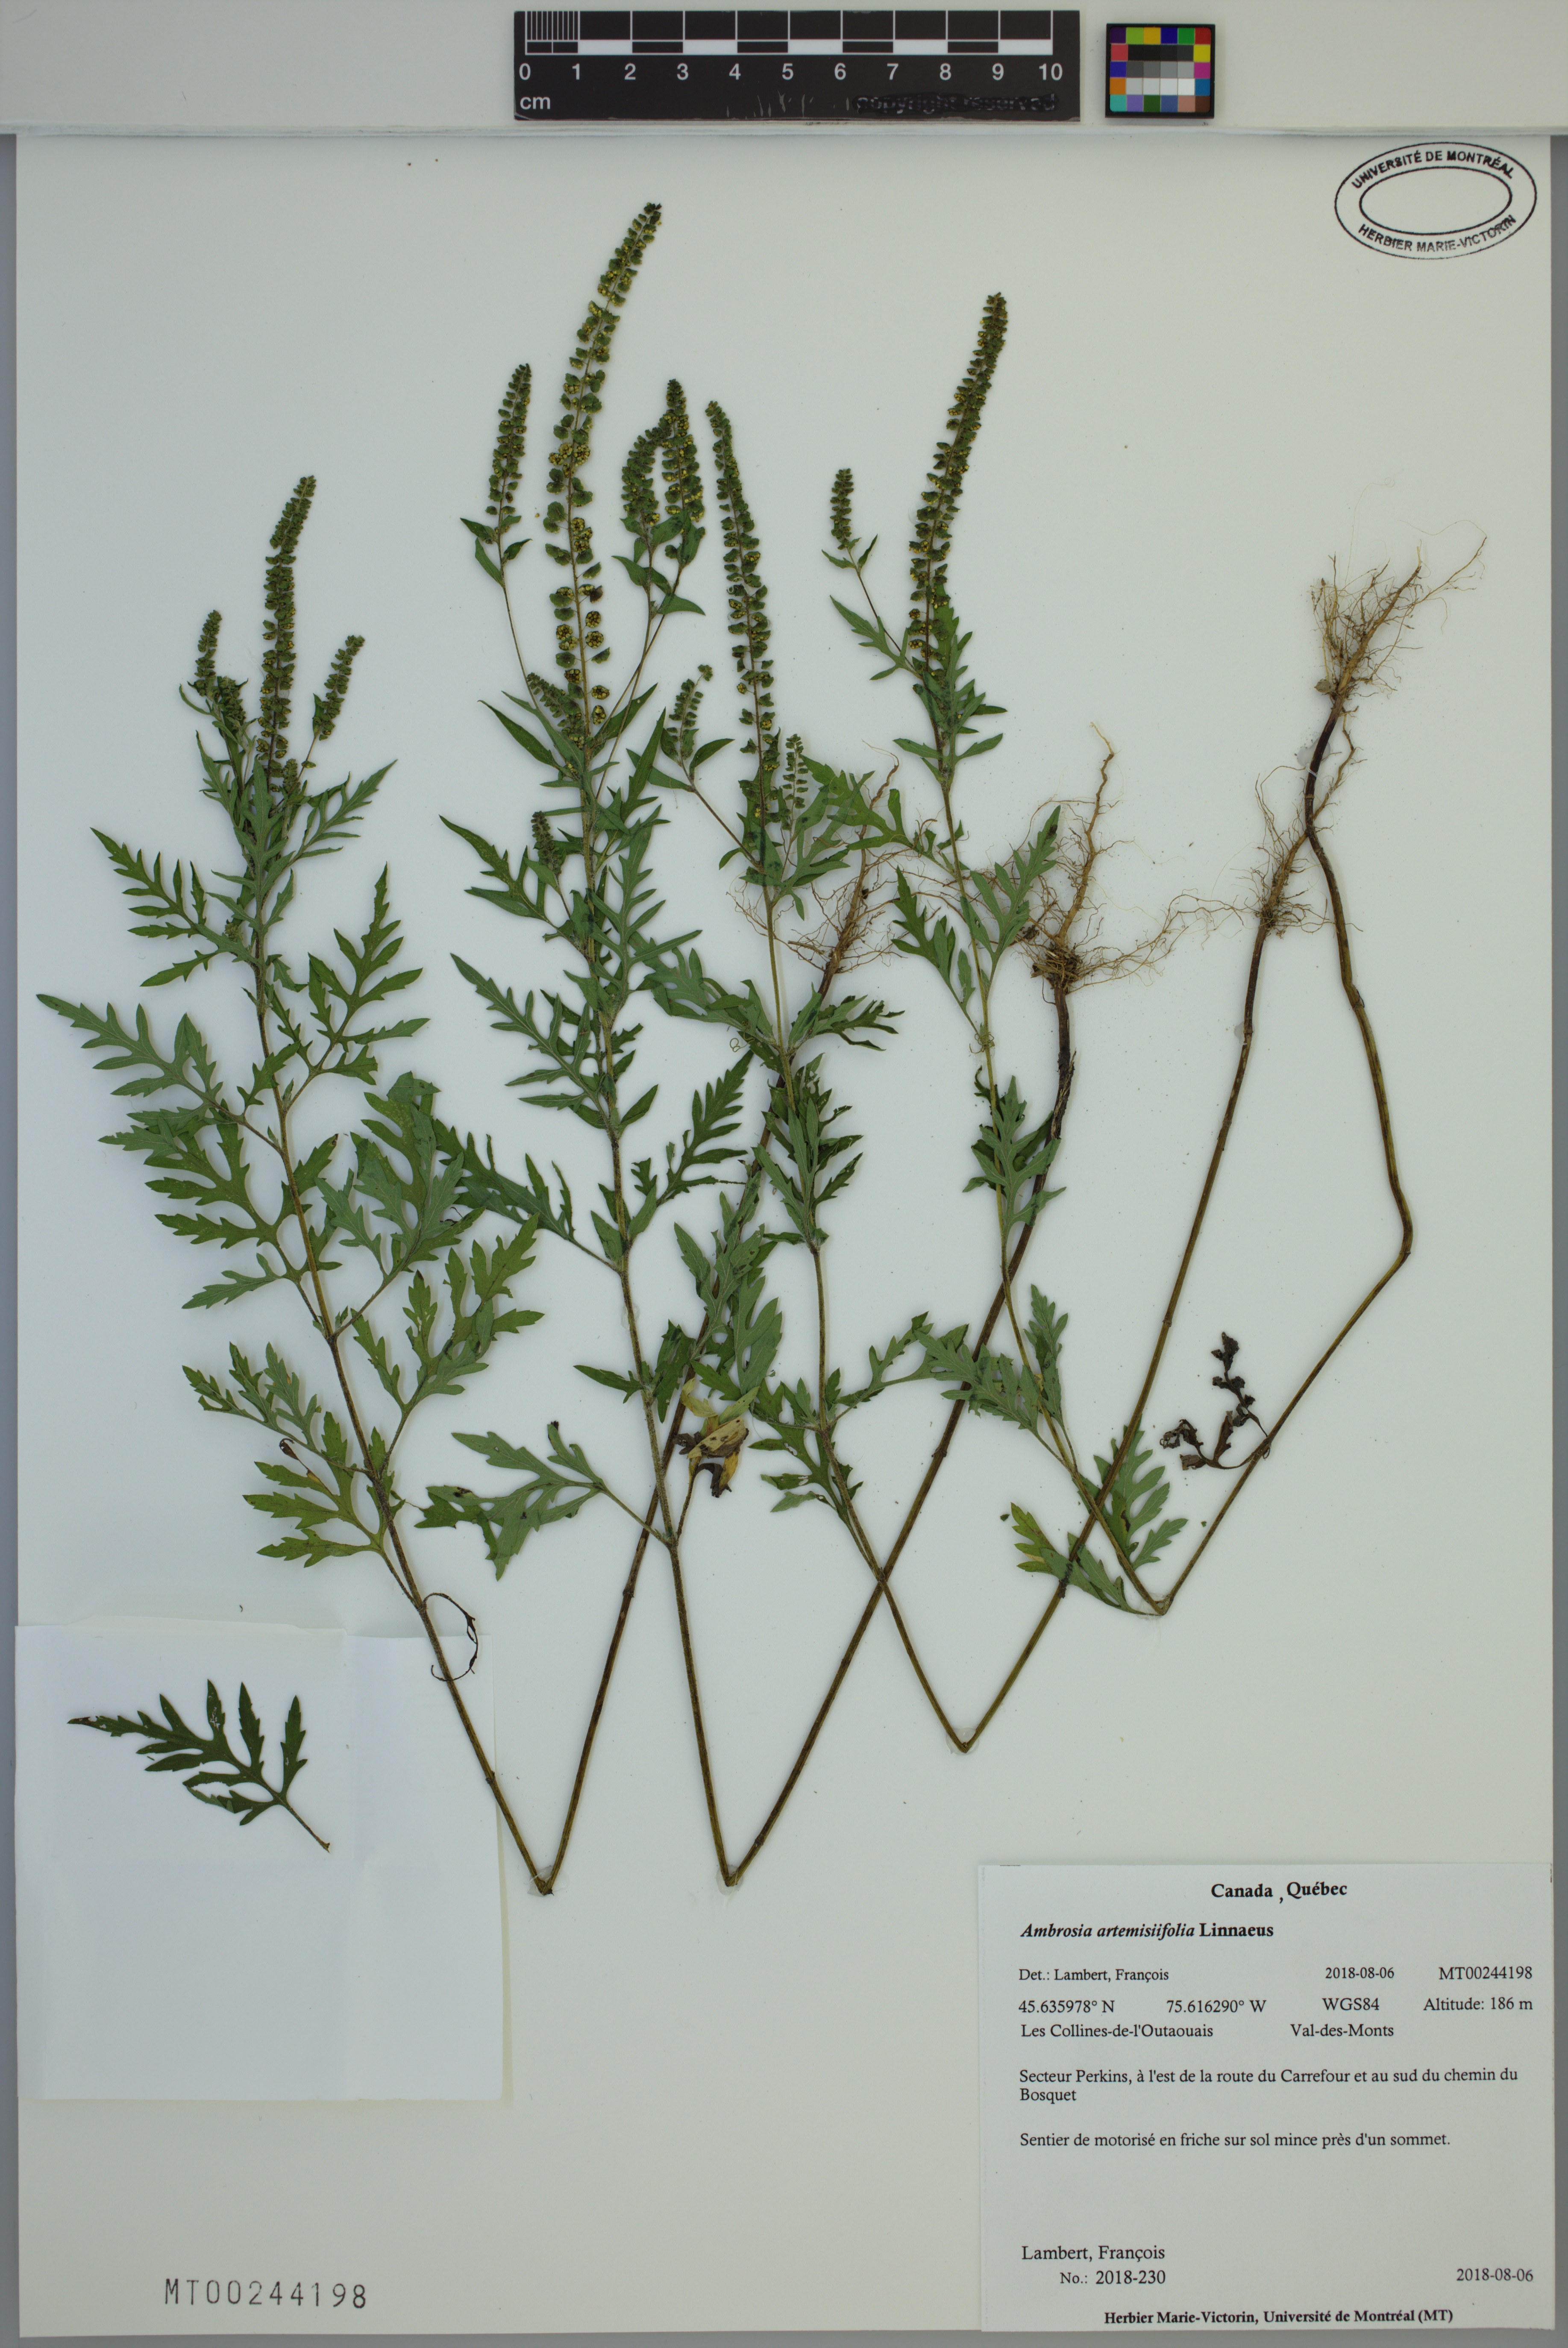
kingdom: Plantae
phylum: Tracheophyta
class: Magnoliopsida
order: Asterales
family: Asteraceae
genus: Ambrosia
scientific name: Ambrosia artemisiifolia
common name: Annual ragweed
